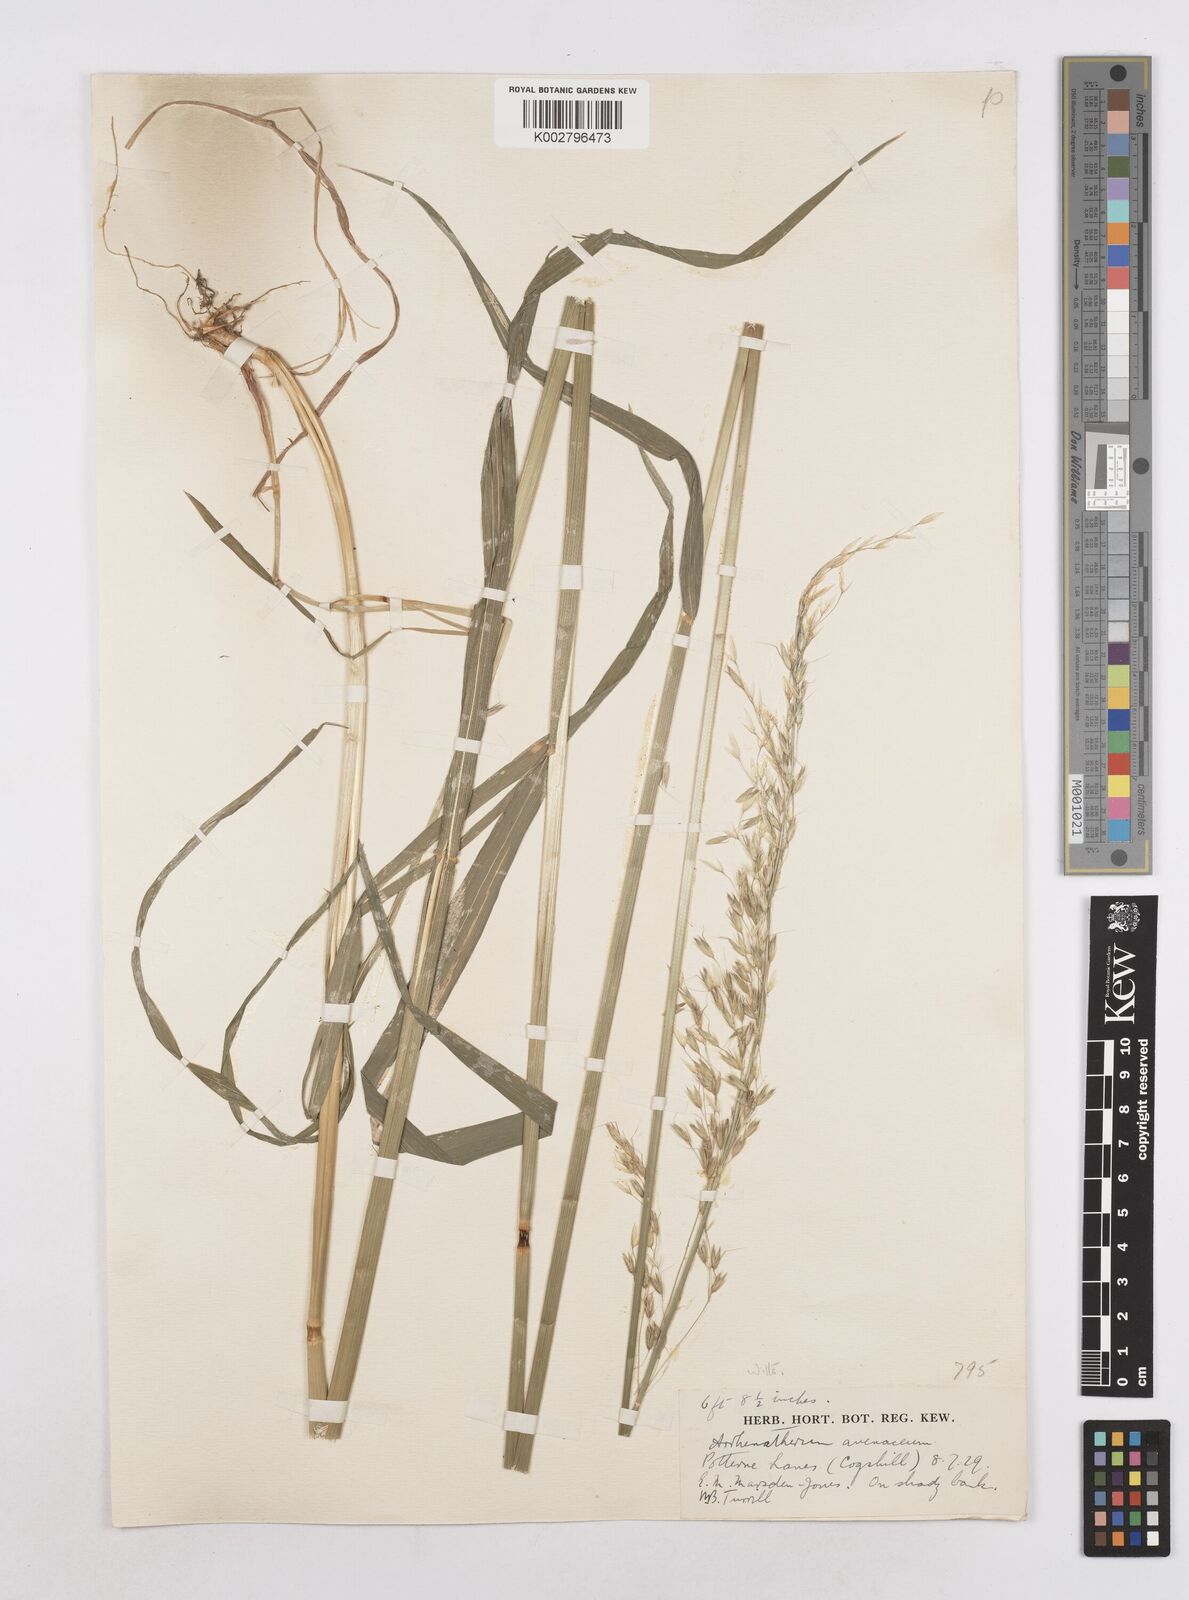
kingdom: Plantae
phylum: Tracheophyta
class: Liliopsida
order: Poales
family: Poaceae
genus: Arrhenatherum
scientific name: Arrhenatherum elatius
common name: Tall oatgrass
